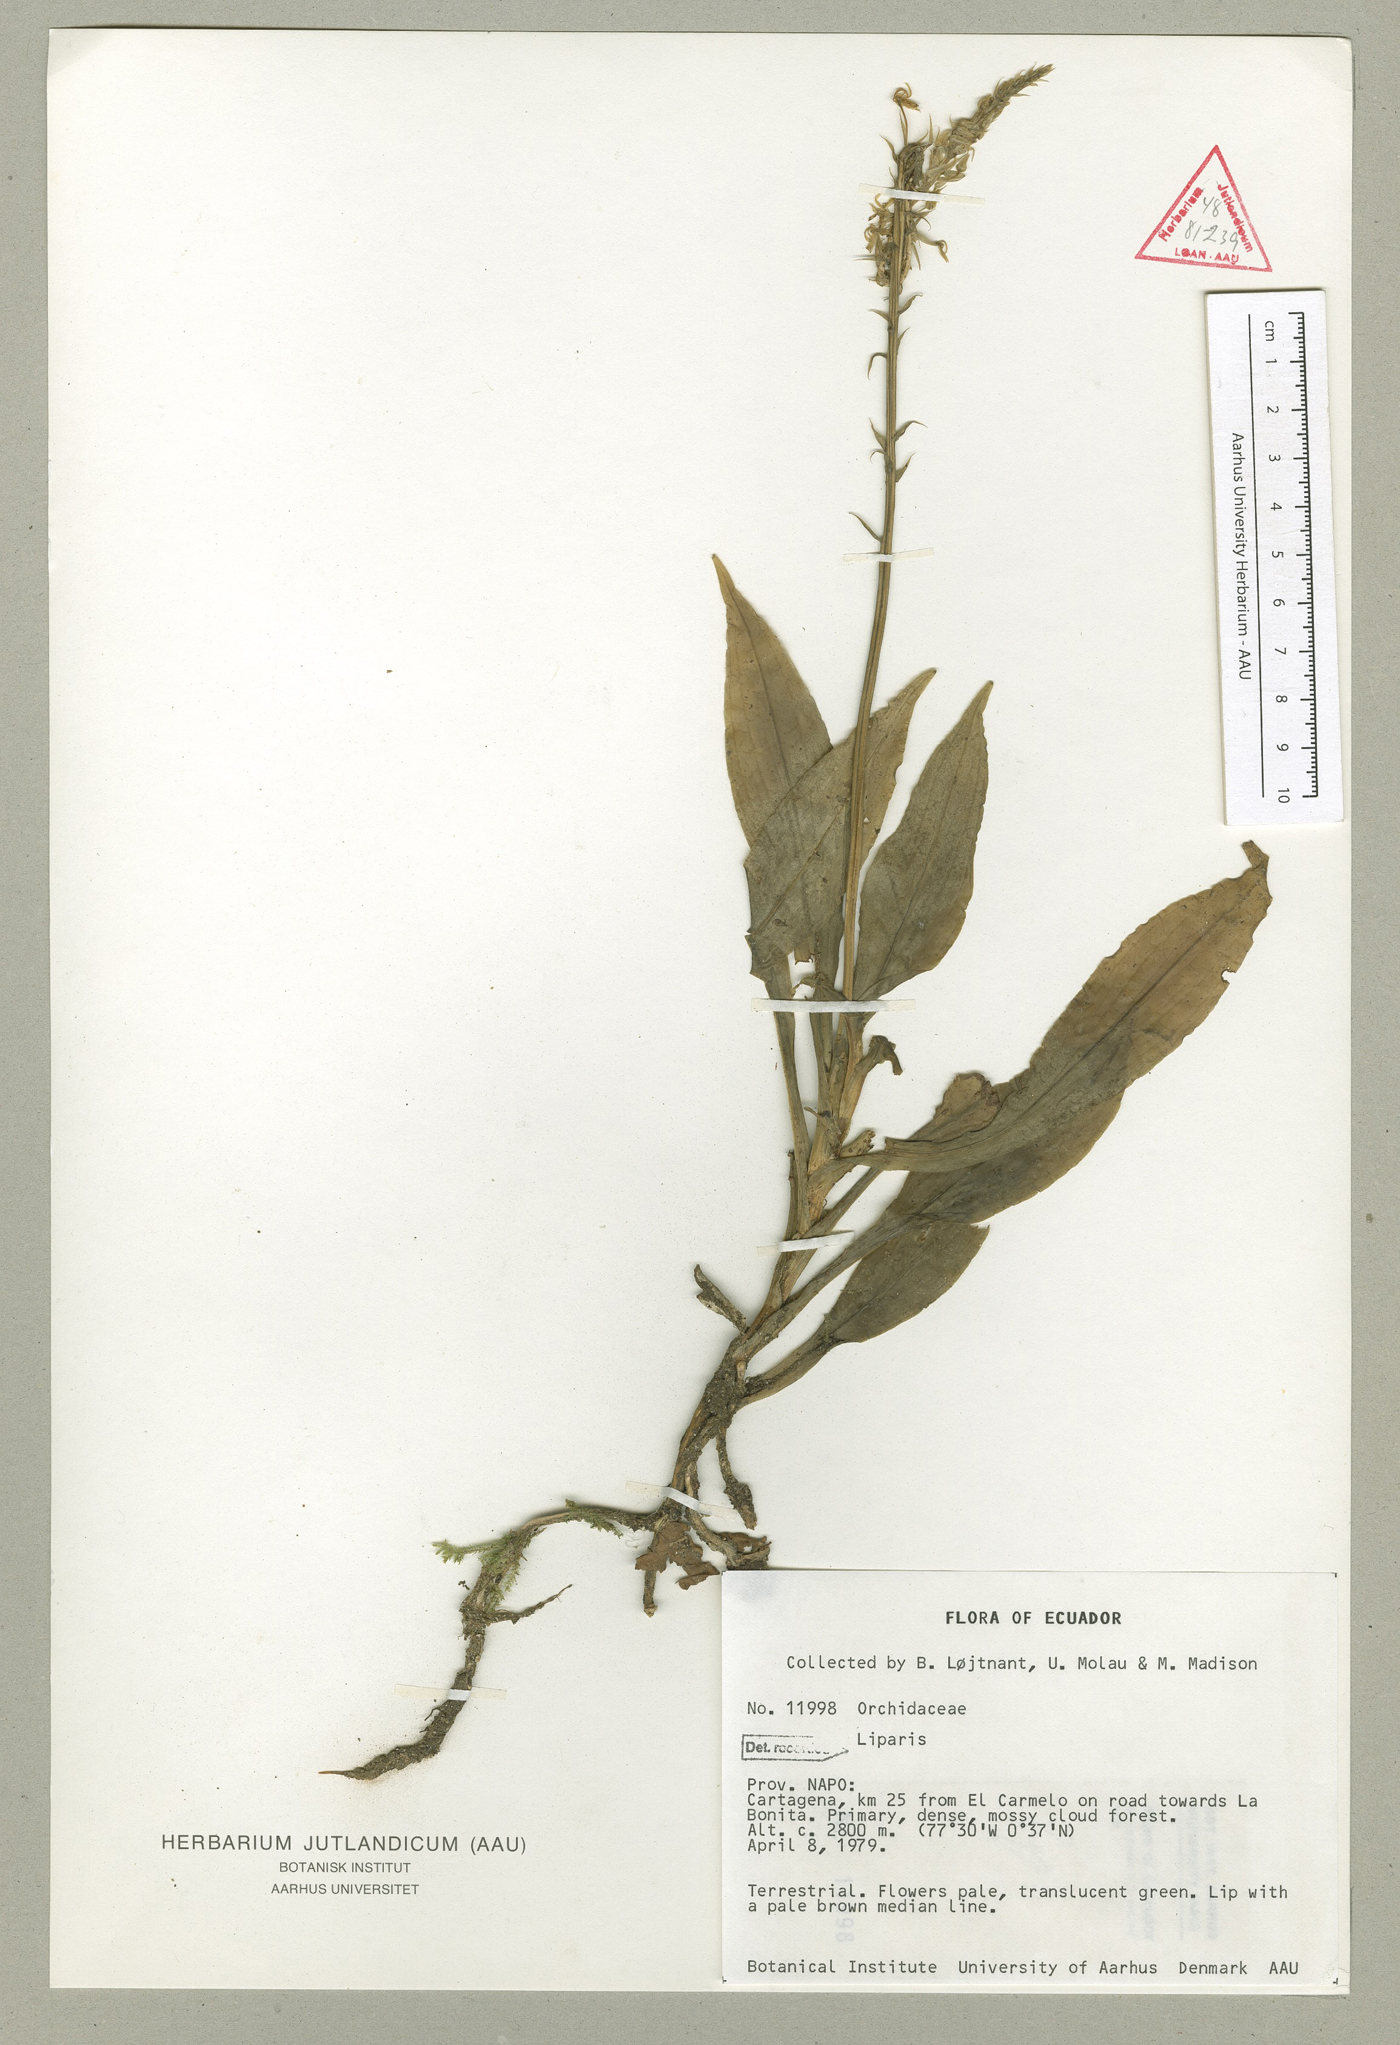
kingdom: Plantae
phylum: Tracheophyta
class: Liliopsida
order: Asparagales
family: Orchidaceae
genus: Crossoglossa
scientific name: Crossoglossa
